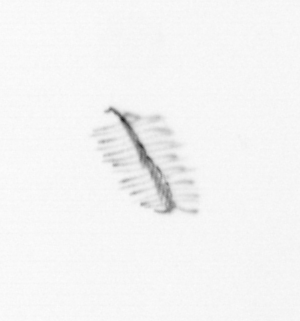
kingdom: Chromista
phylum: Ochrophyta
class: Bacillariophyceae
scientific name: Bacillariophyceae
